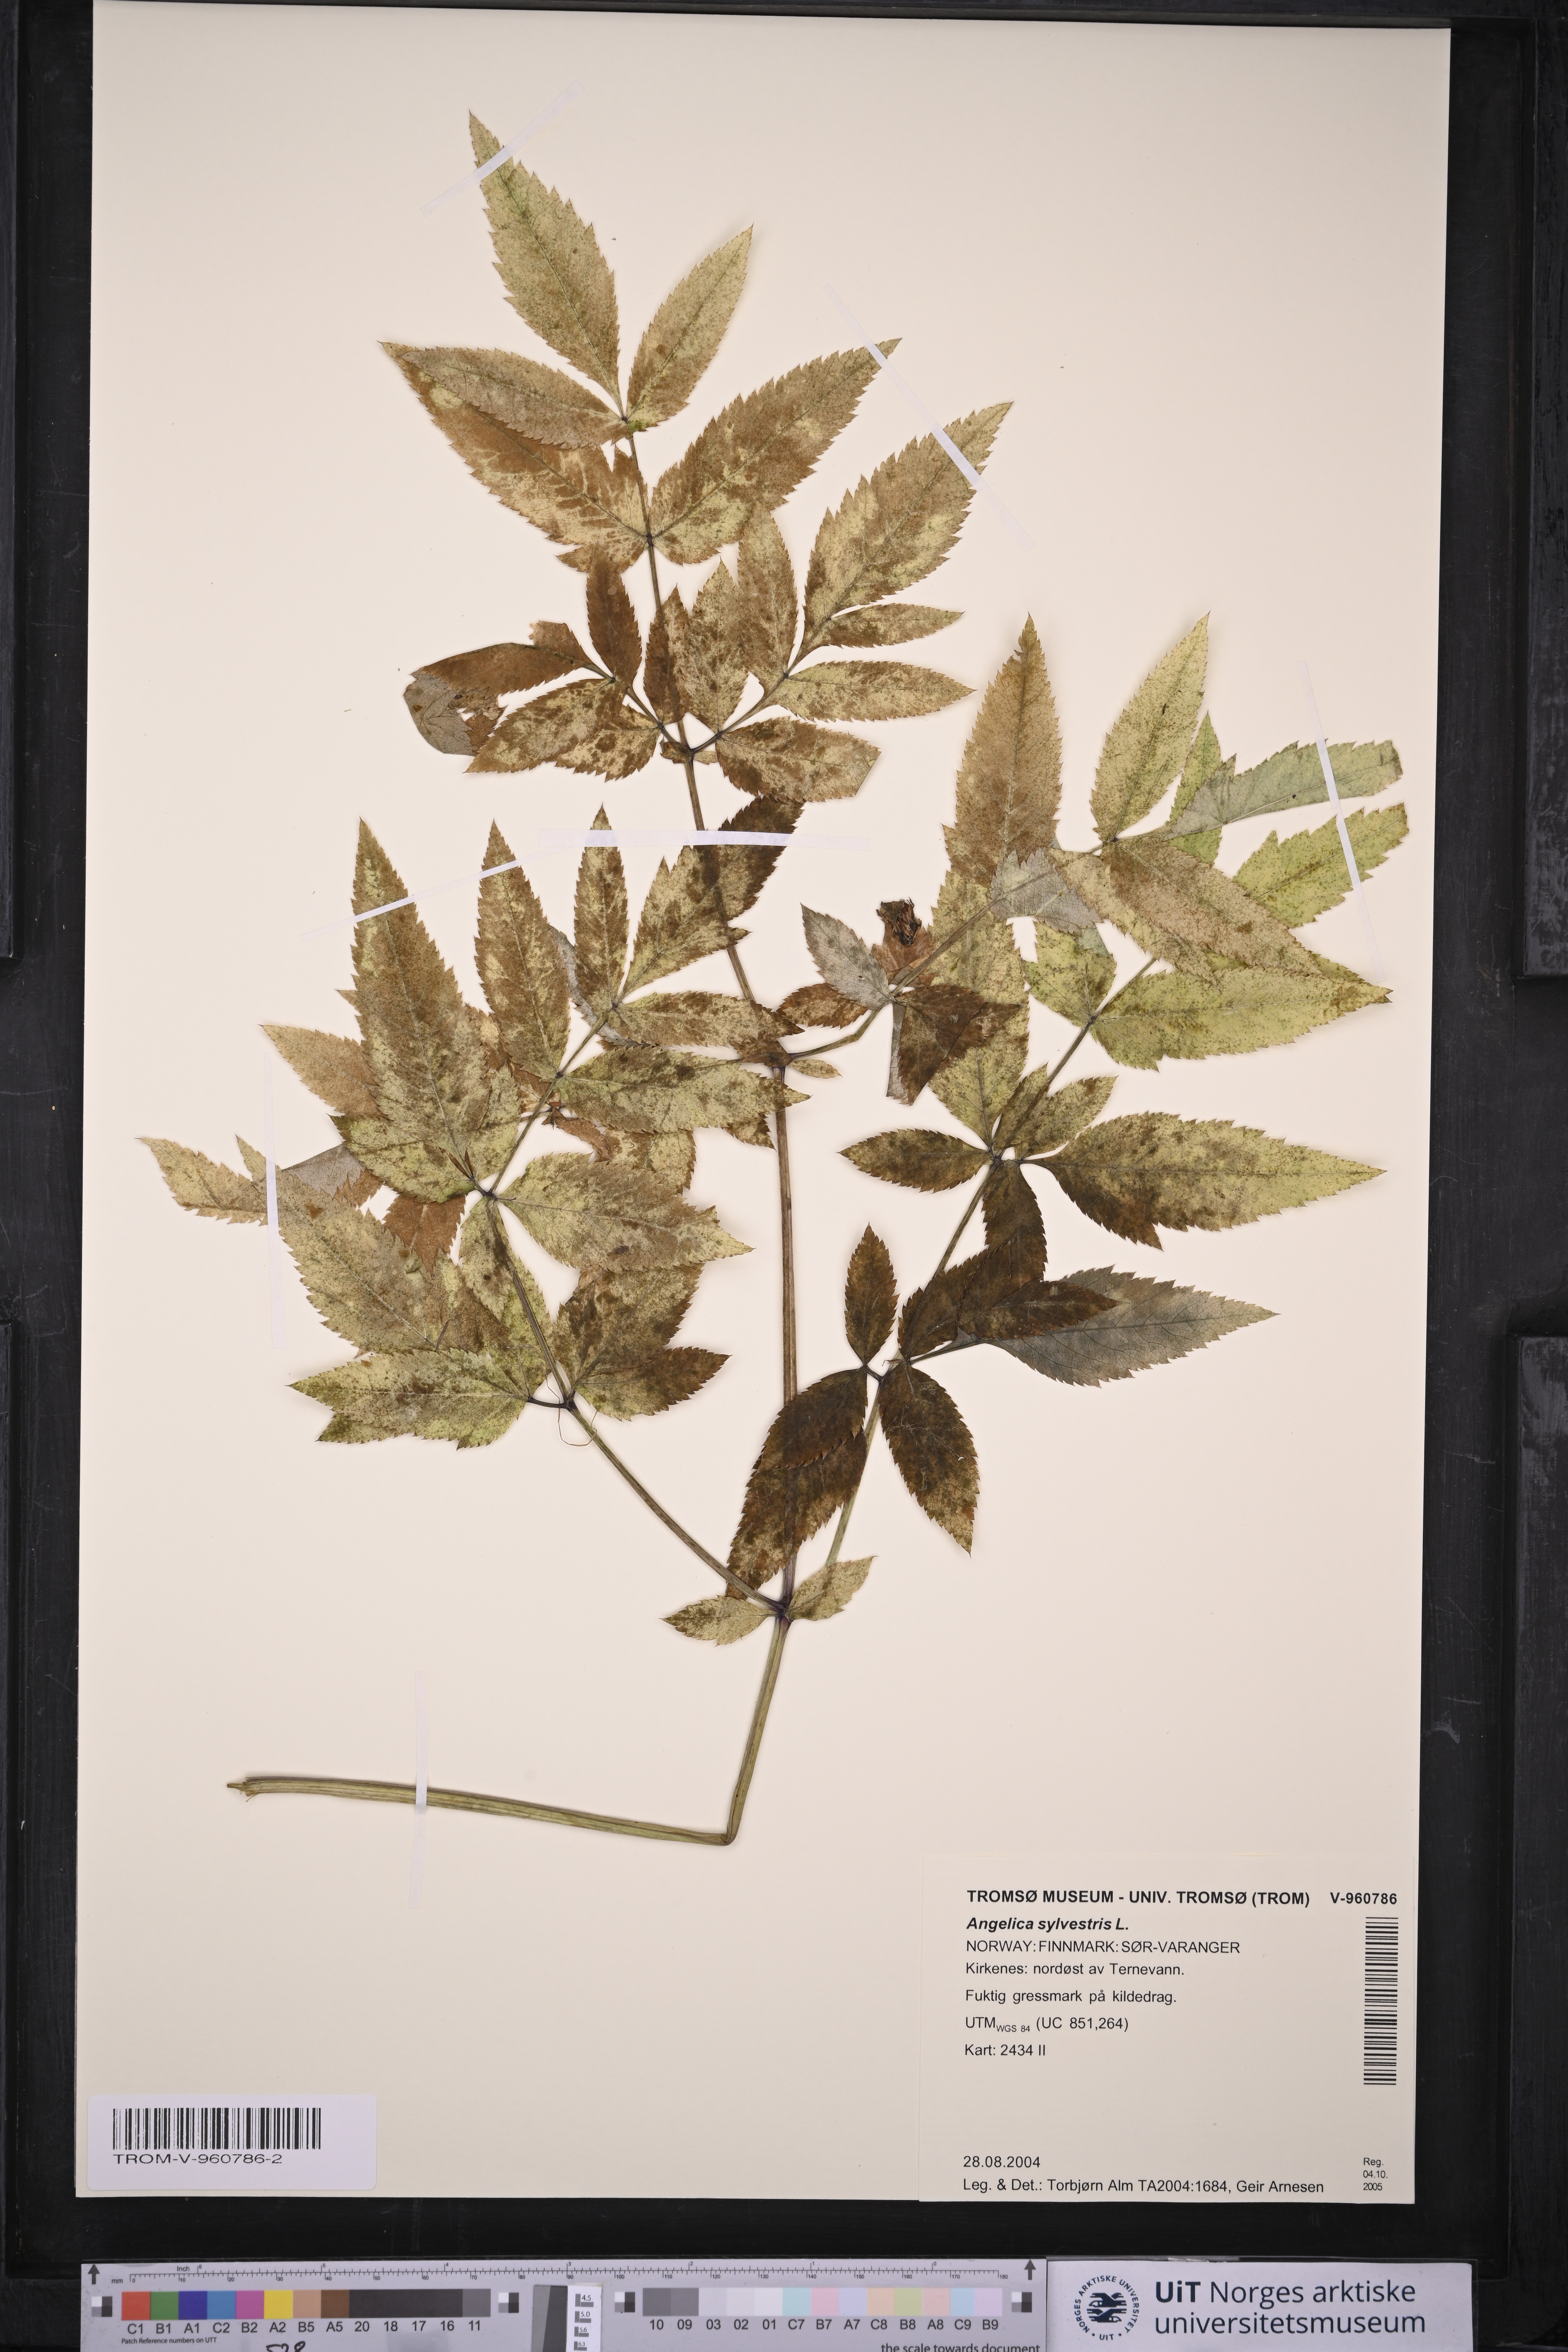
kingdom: Plantae
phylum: Tracheophyta
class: Magnoliopsida
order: Apiales
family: Apiaceae
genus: Angelica
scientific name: Angelica sylvestris
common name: Wild angelica
